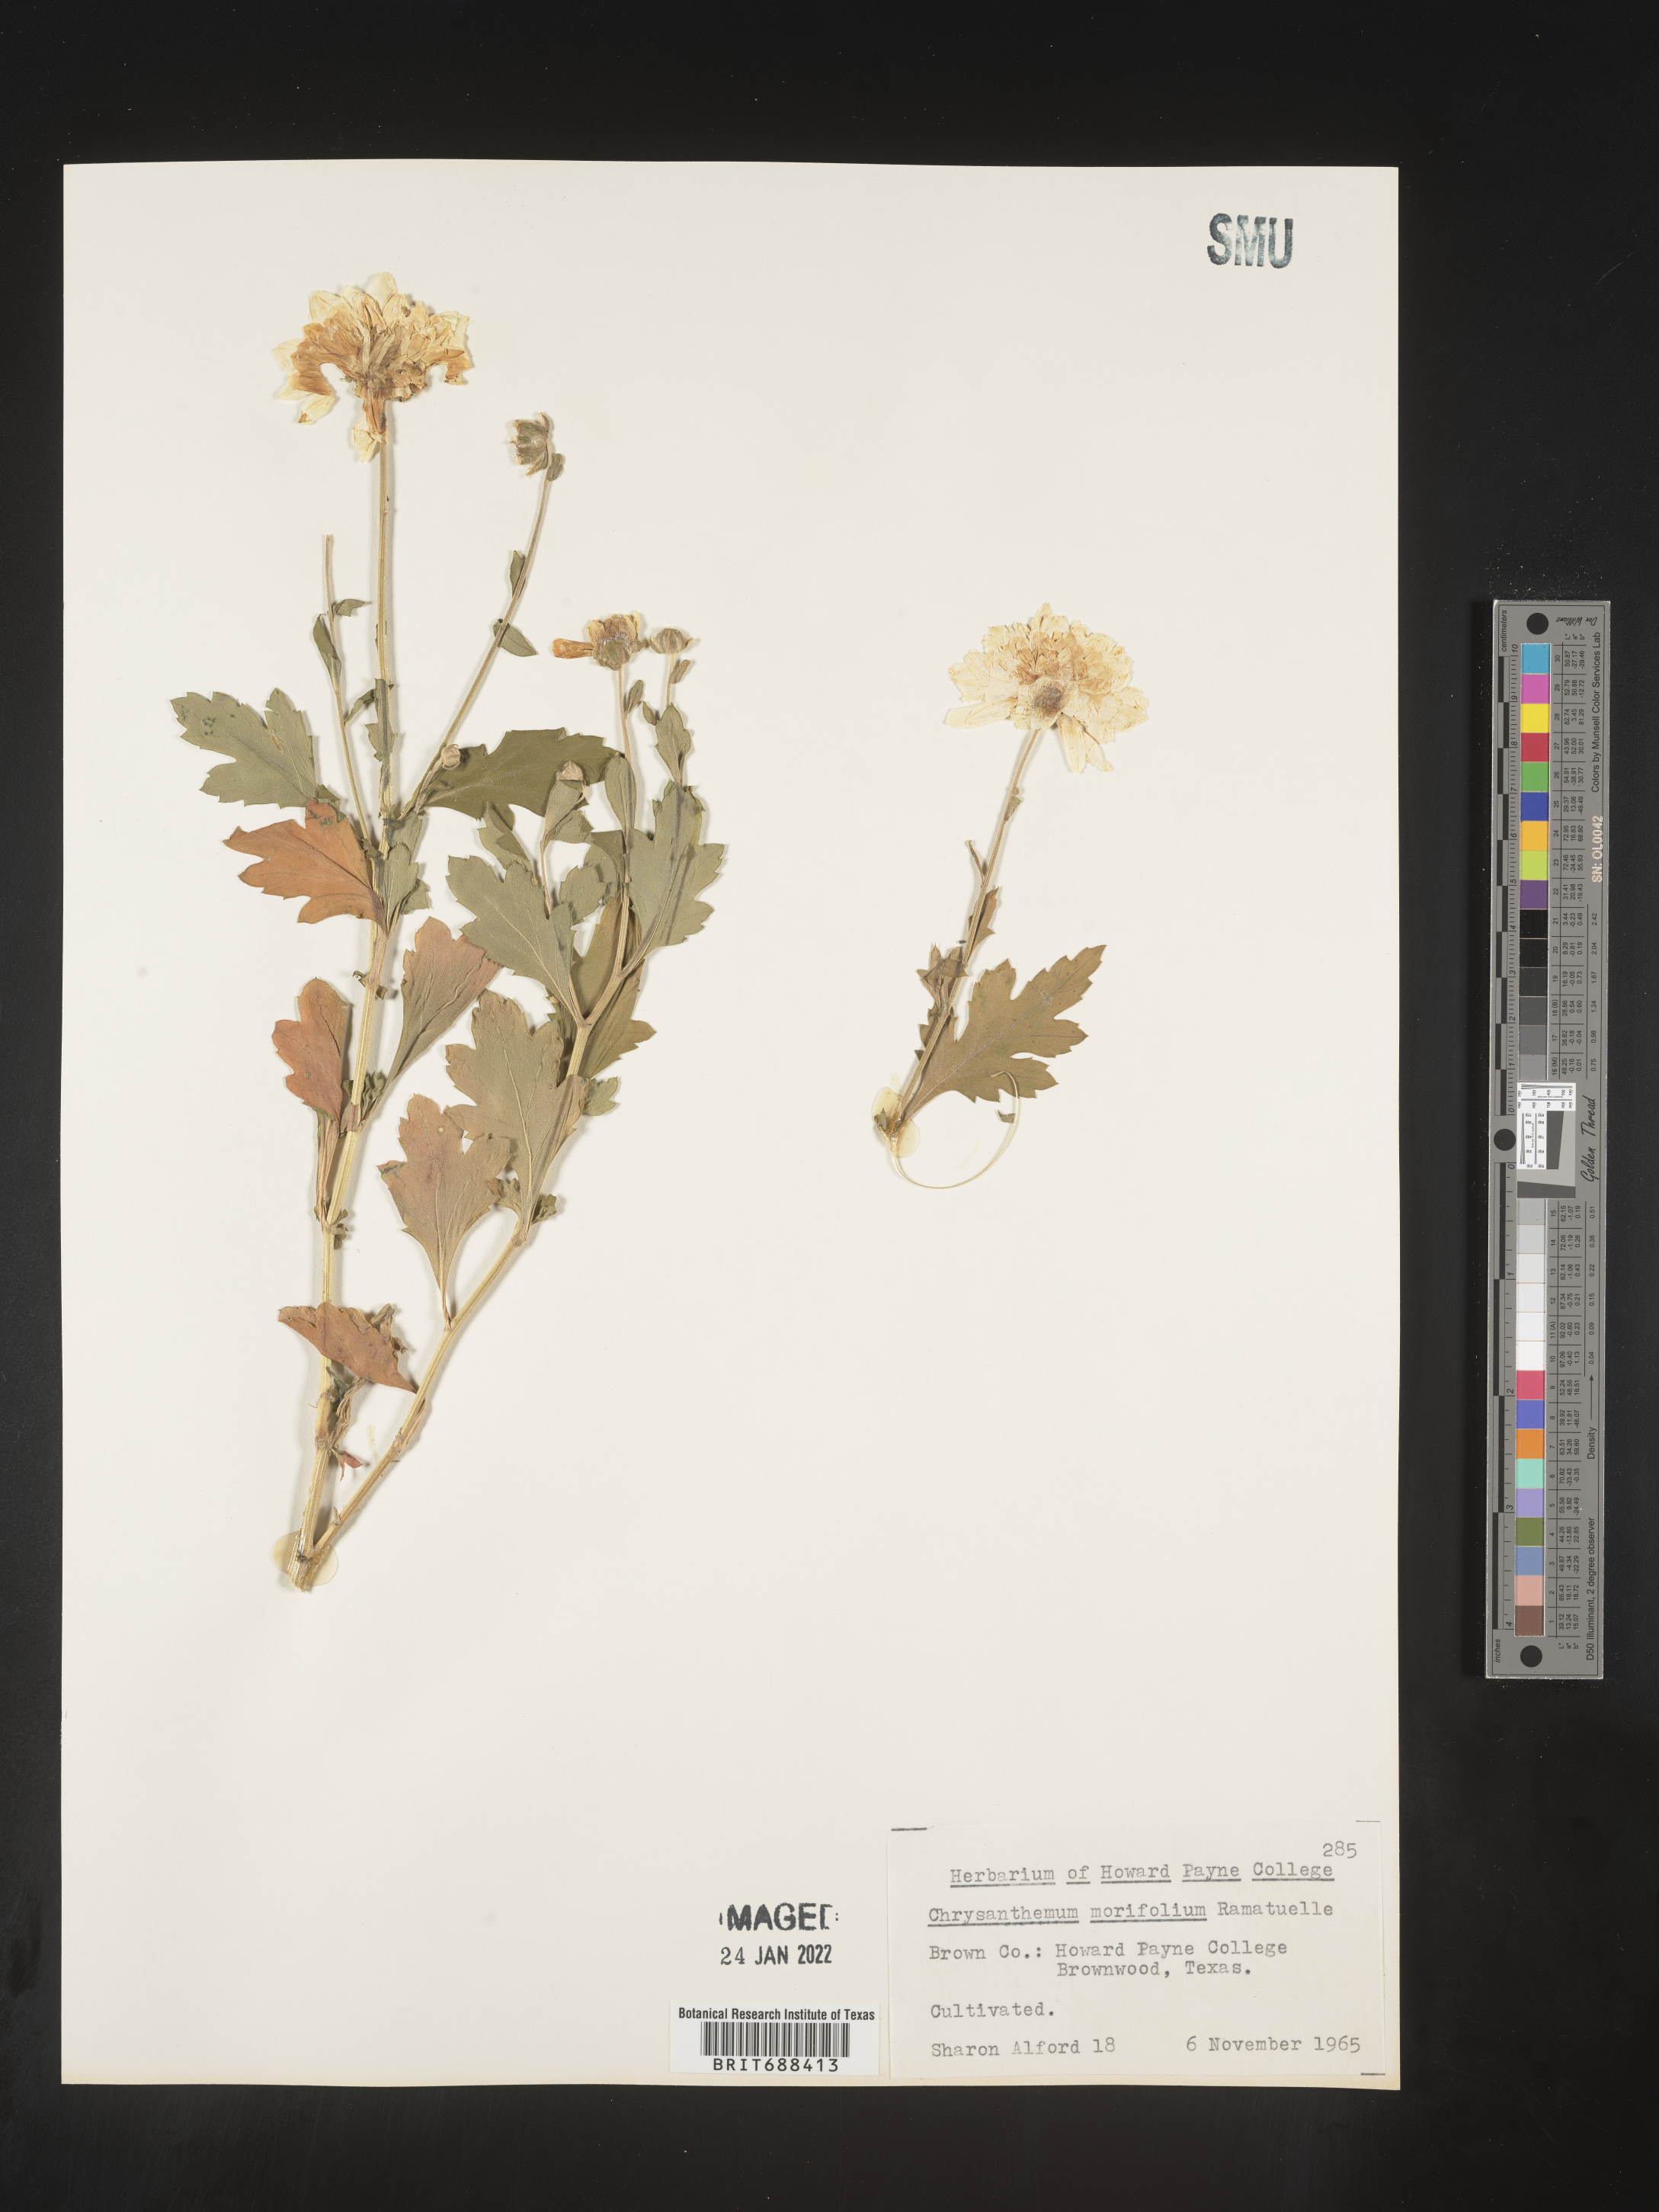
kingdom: Plantae
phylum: Tracheophyta
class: Magnoliopsida
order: Asterales
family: Asteraceae
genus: Chrysanthemum
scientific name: Chrysanthemum
